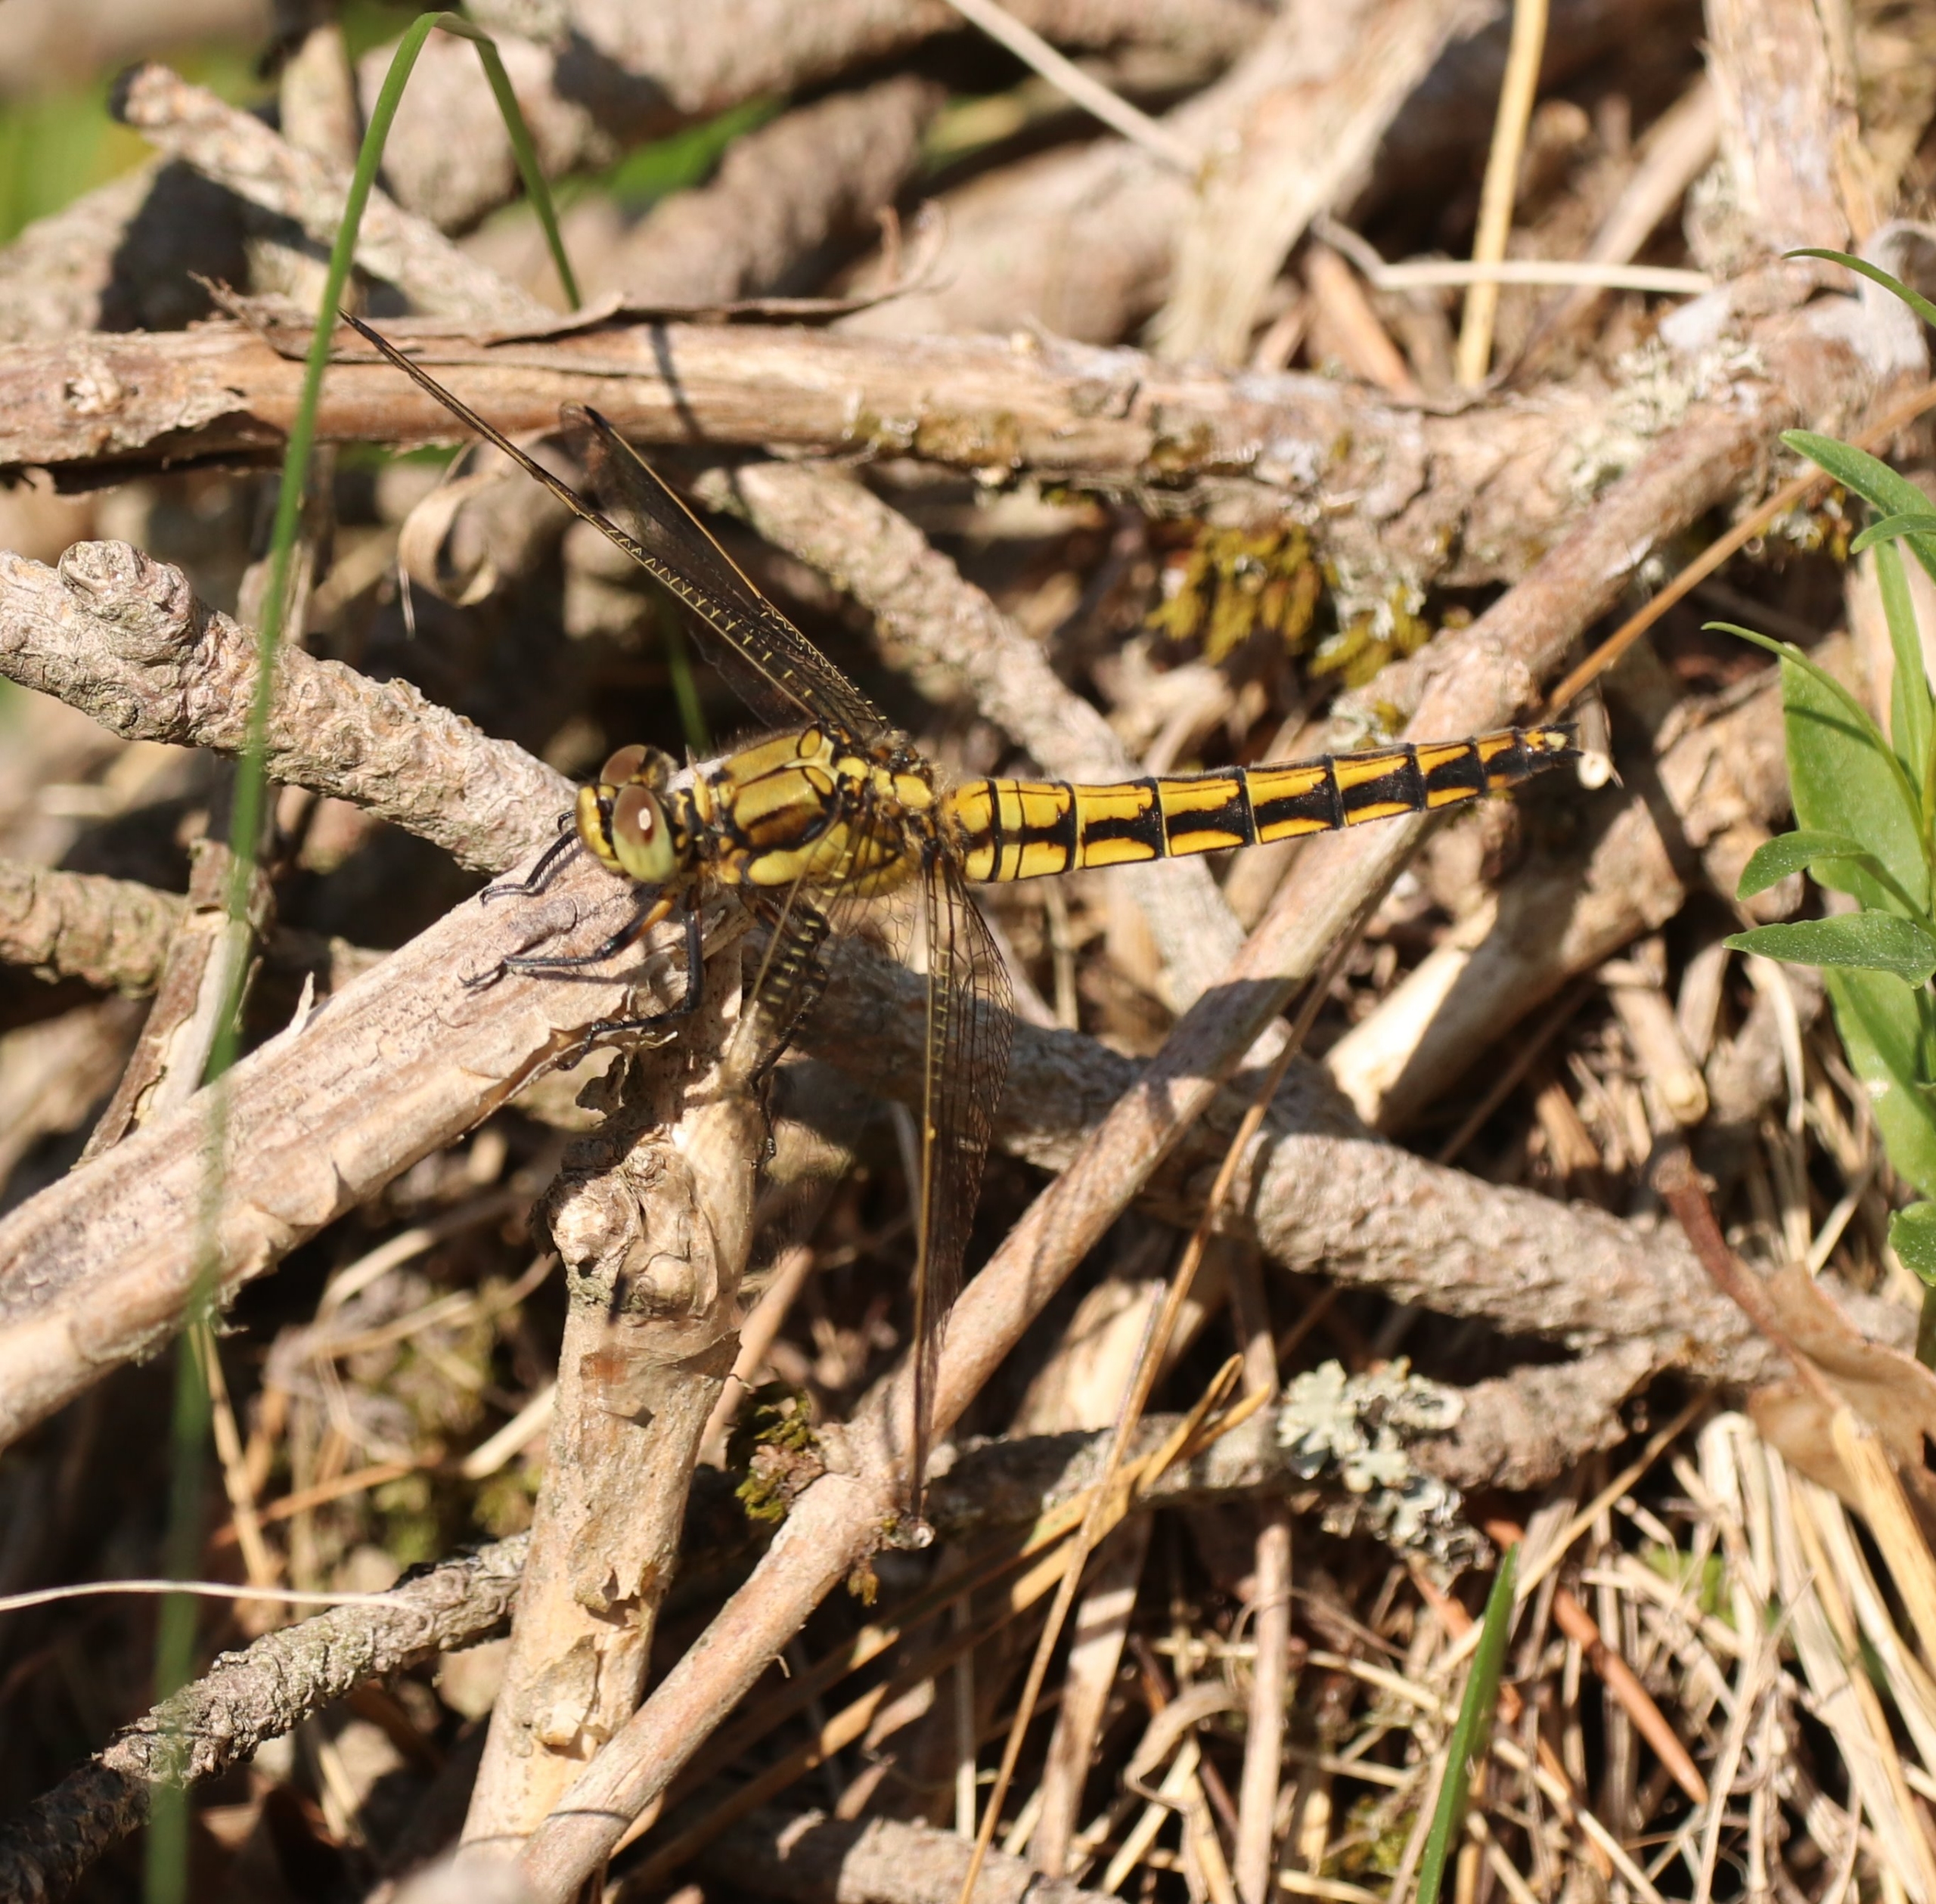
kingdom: Animalia
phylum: Arthropoda
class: Insecta
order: Odonata
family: Libellulidae
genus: Orthetrum
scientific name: Orthetrum cancellatum
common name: Stor blåpil
